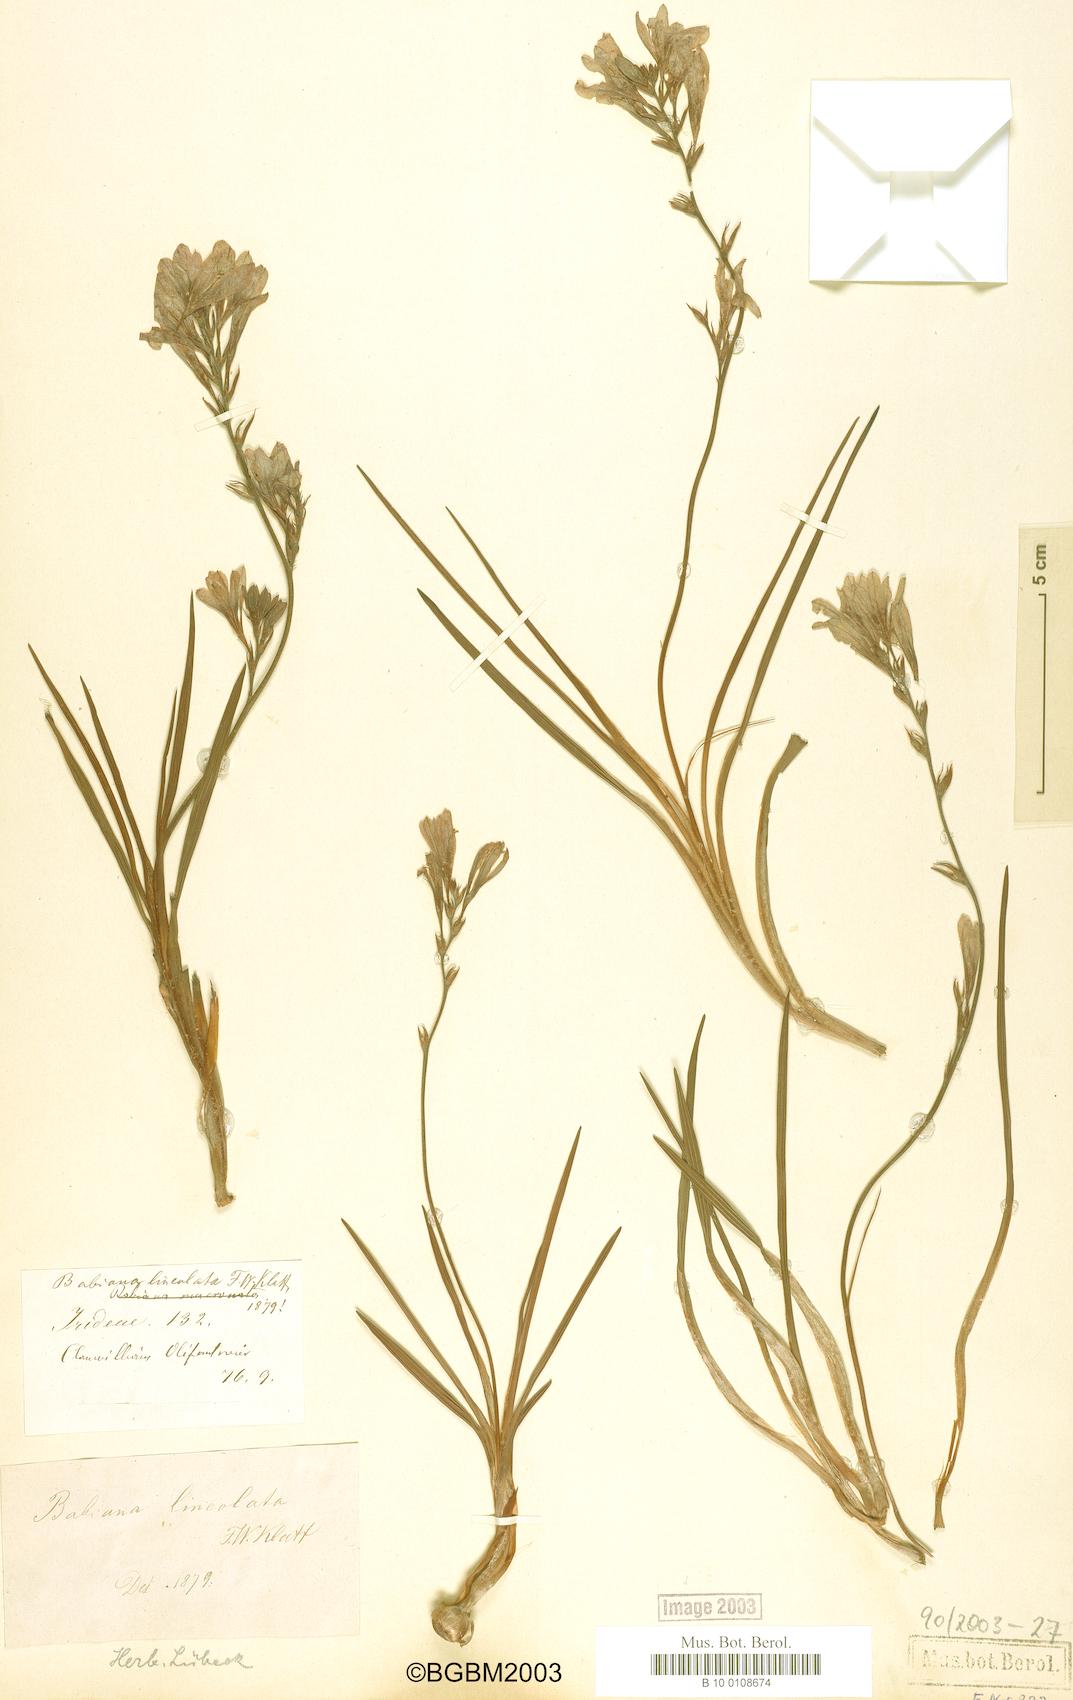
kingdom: Plantae
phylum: Tracheophyta
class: Liliopsida
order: Asparagales
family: Iridaceae
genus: Babiana
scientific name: Babiana lineolata
